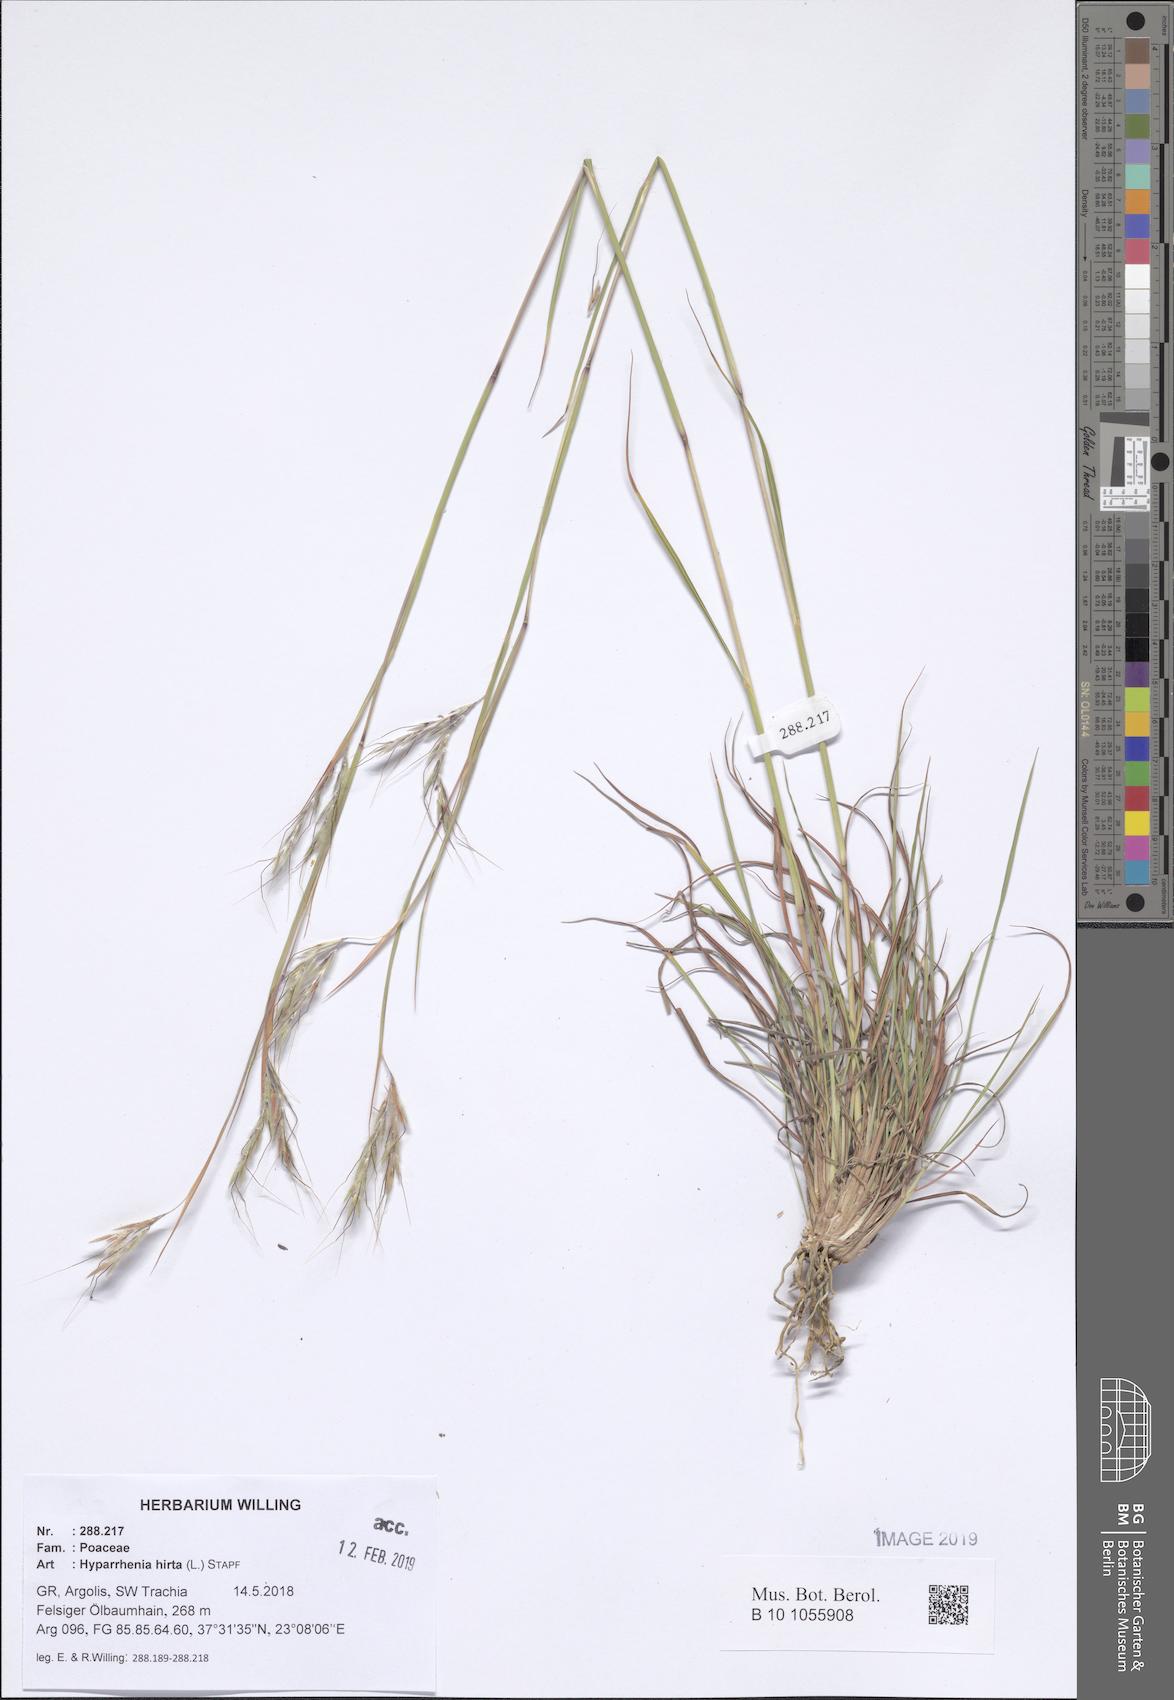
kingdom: Plantae
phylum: Tracheophyta
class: Liliopsida
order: Poales
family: Poaceae
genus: Hyparrhenia
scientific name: Hyparrhenia hirta
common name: Thatching grass
